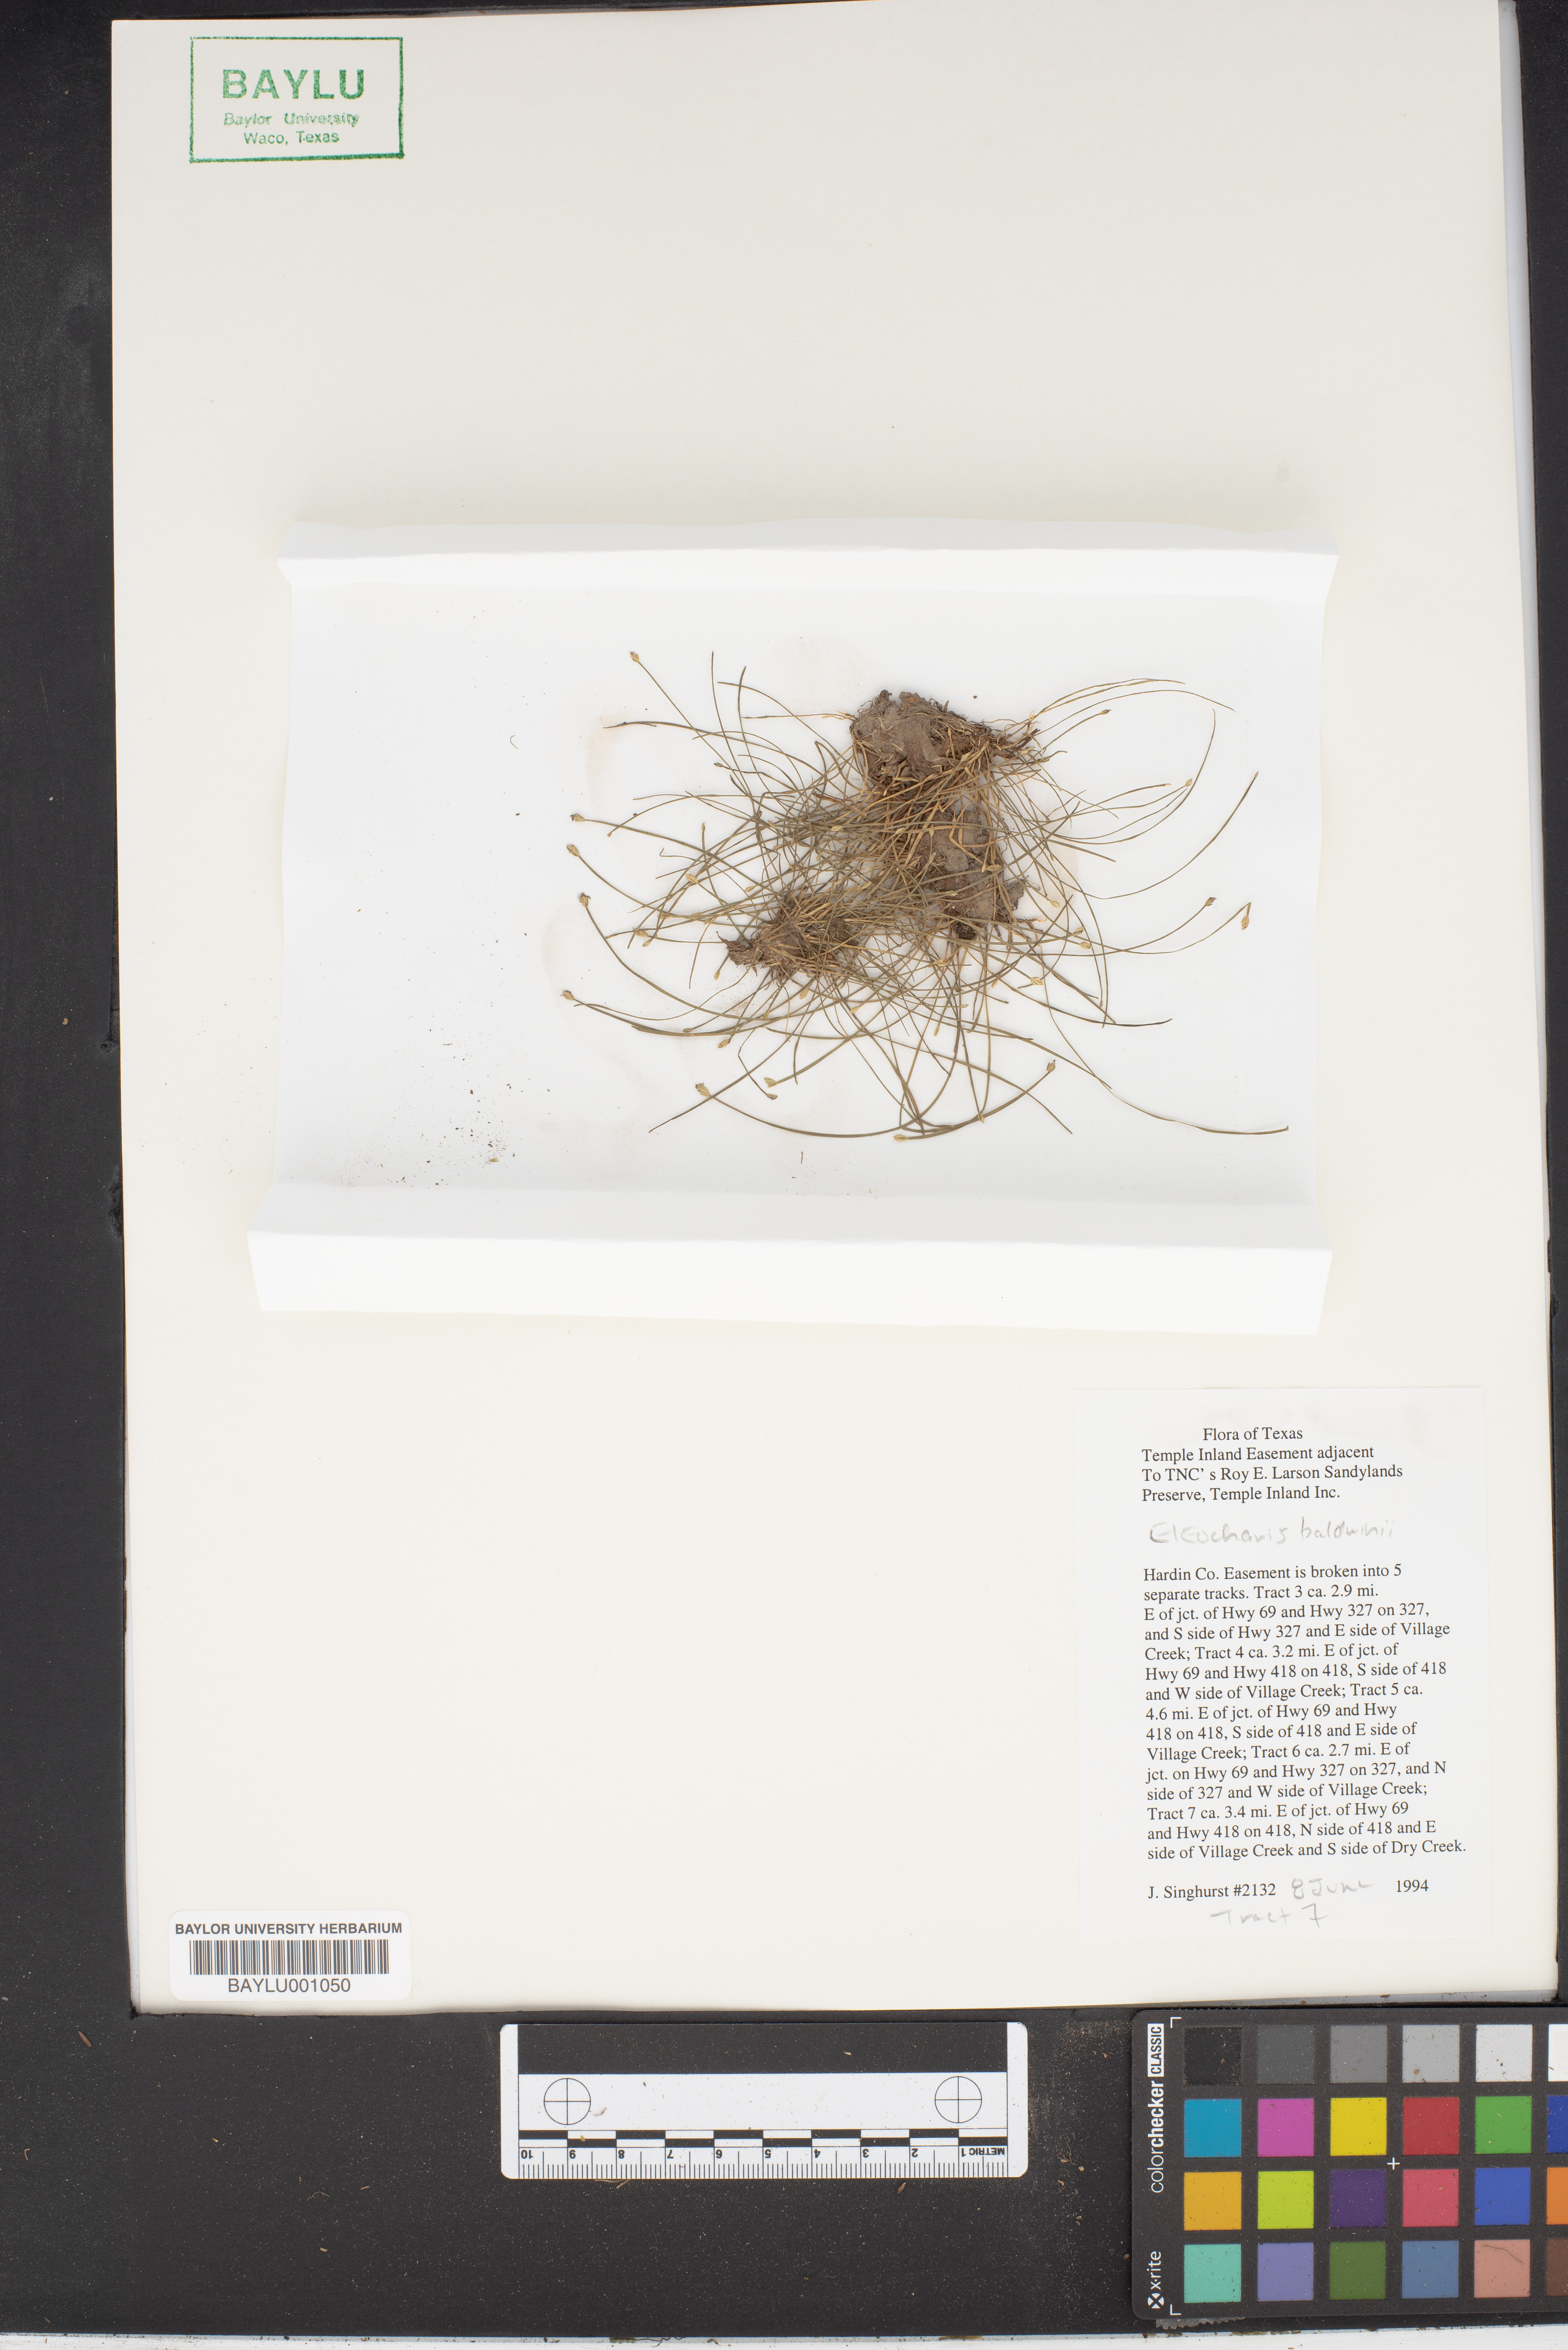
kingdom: Plantae
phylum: Tracheophyta
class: Liliopsida
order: Poales
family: Cyperaceae
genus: Eleocharis
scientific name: Eleocharis baldwinii
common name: Baldwin's spike-rush
